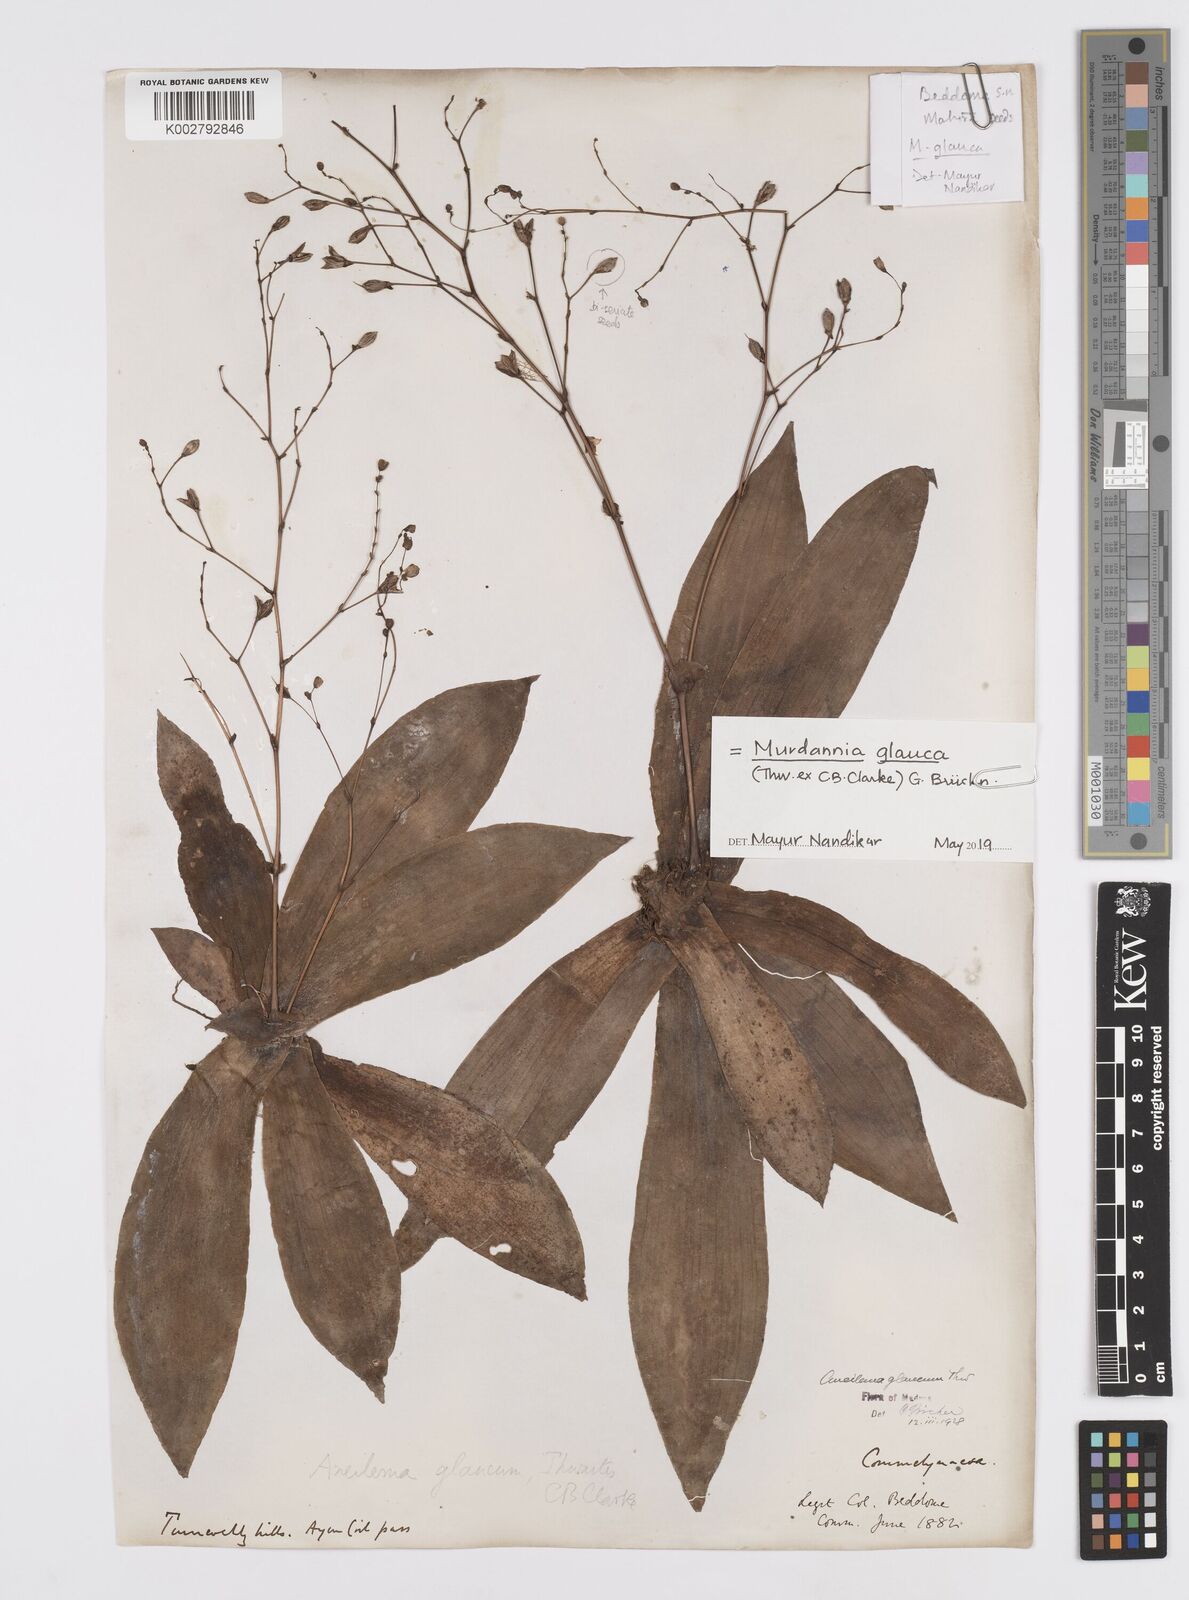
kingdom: Plantae
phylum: Tracheophyta
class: Liliopsida
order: Commelinales
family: Commelinaceae
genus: Murdannia
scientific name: Murdannia glauca
